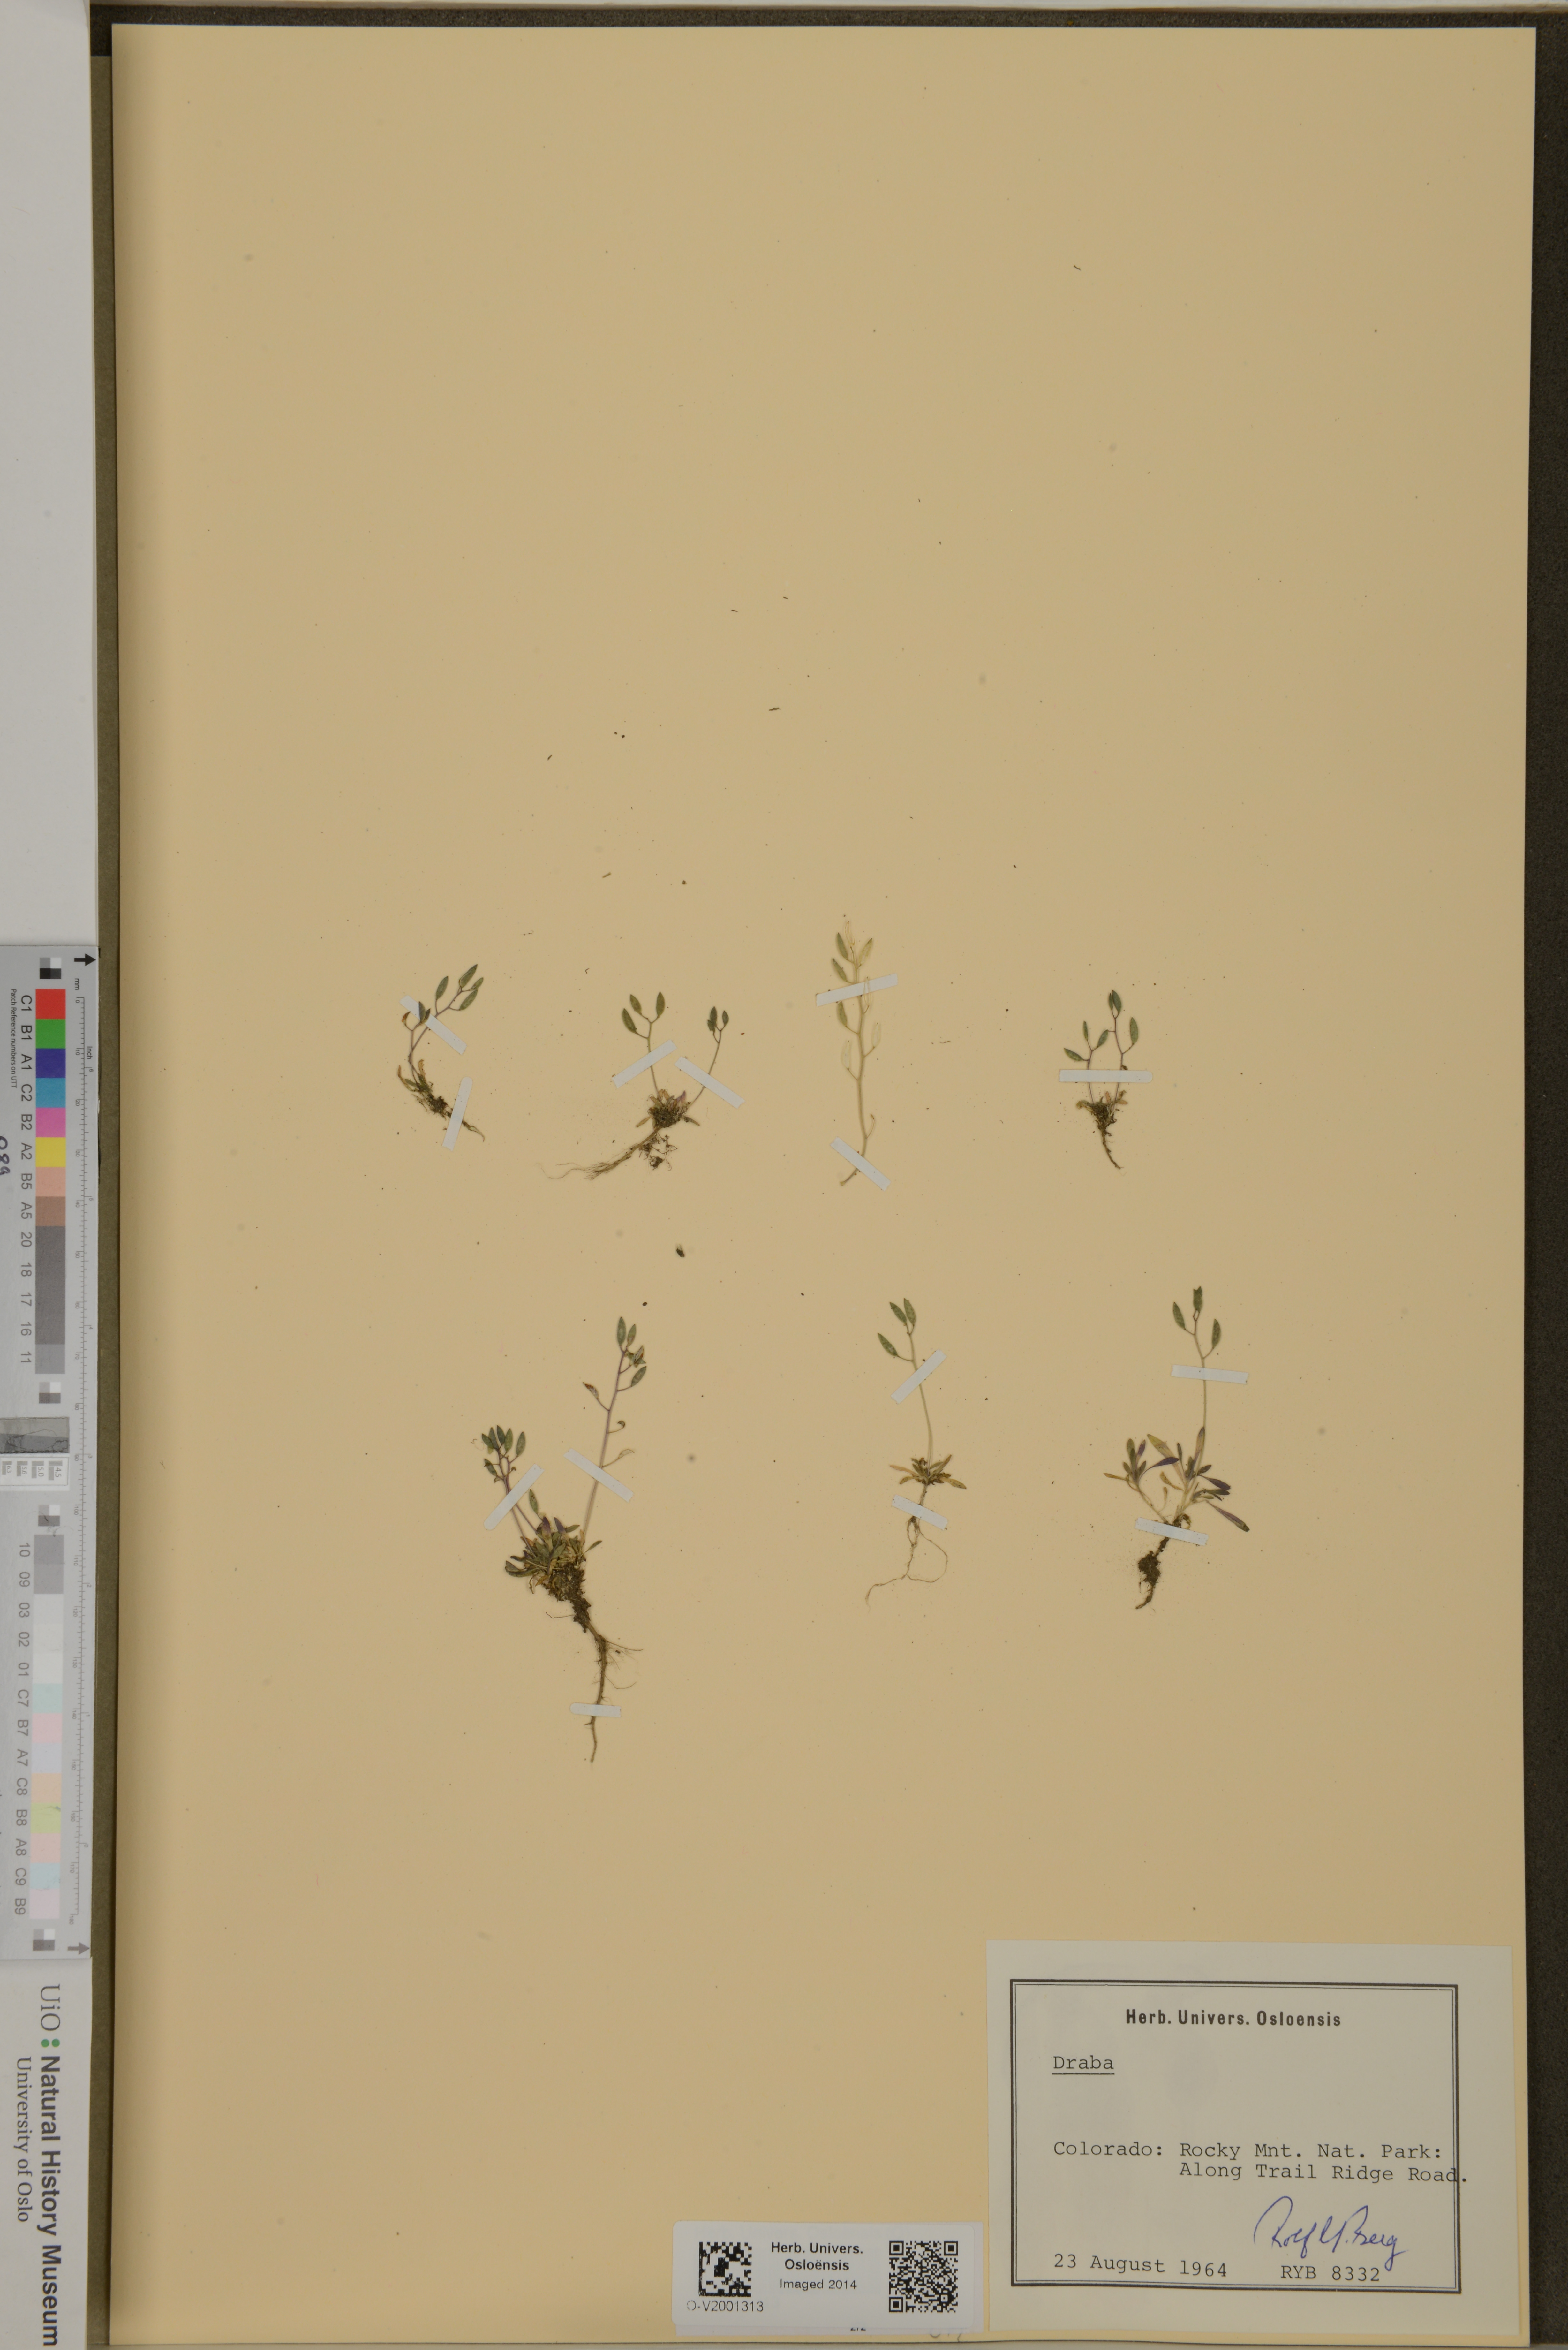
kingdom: Plantae
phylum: Tracheophyta
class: Magnoliopsida
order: Brassicales
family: Brassicaceae
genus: Draba
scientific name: Draba
